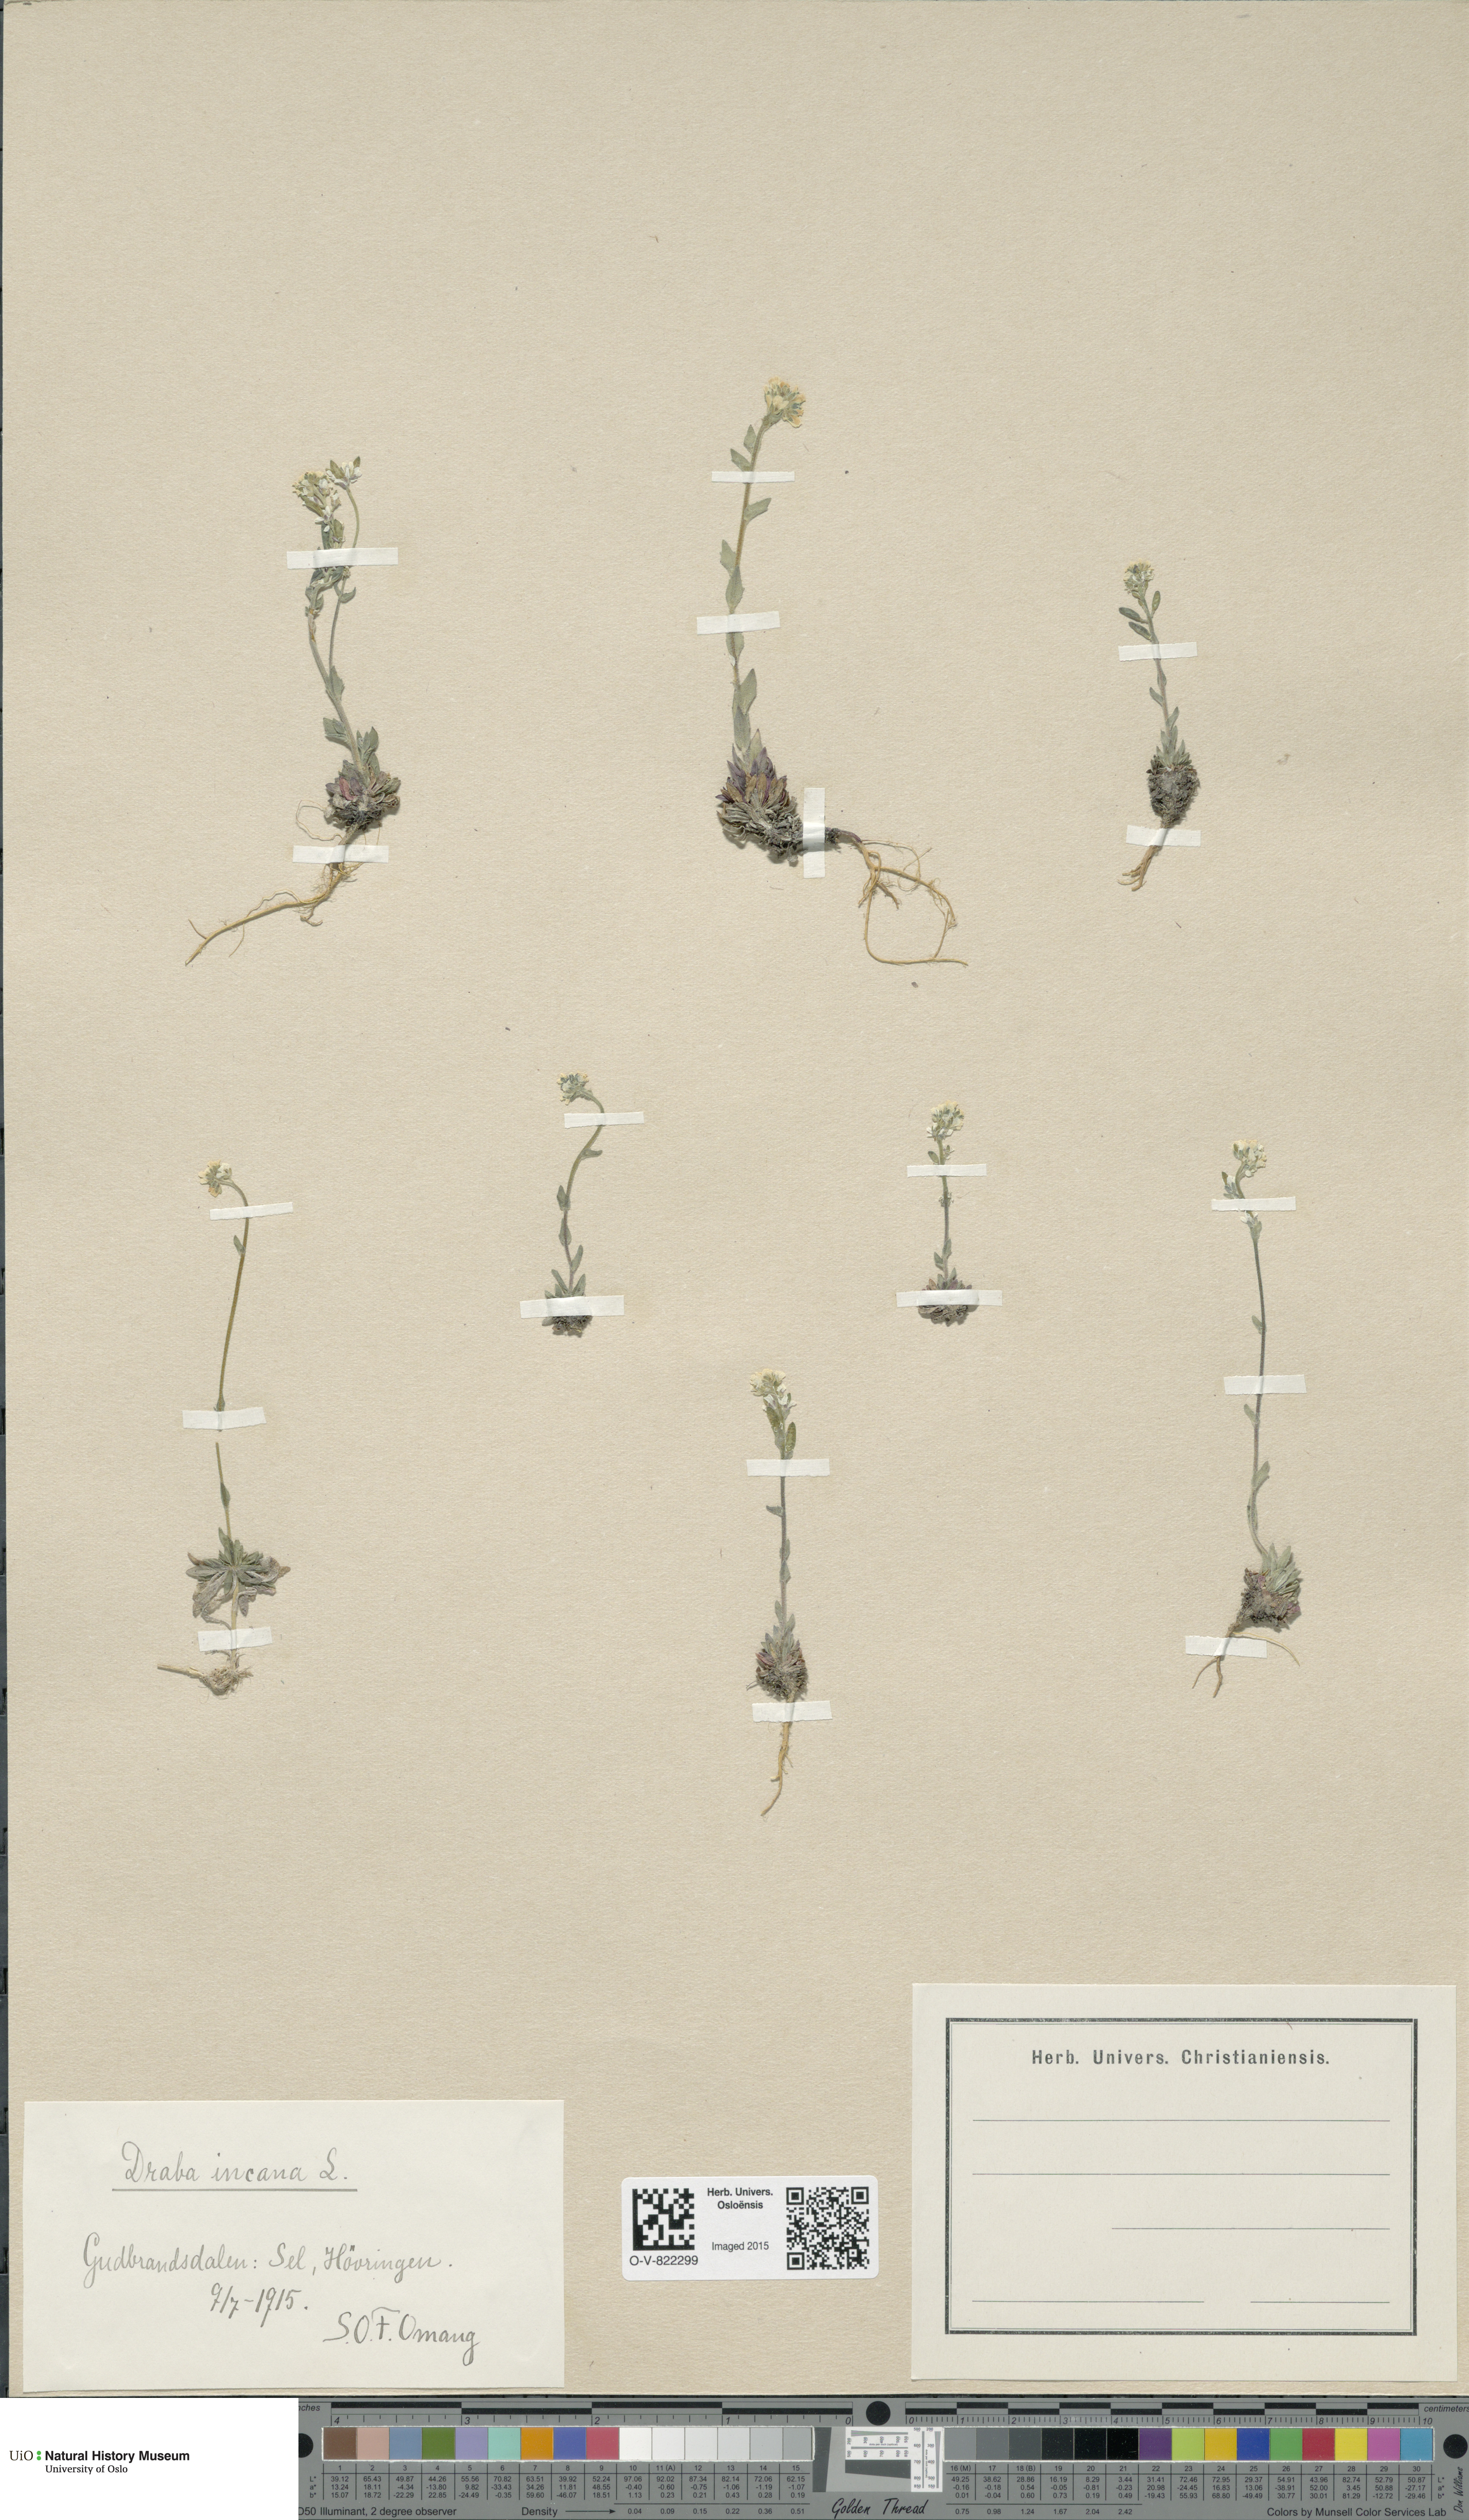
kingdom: Plantae
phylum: Tracheophyta
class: Magnoliopsida
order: Brassicales
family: Brassicaceae
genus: Draba
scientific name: Draba incana
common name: Hoary whitlow-grass
